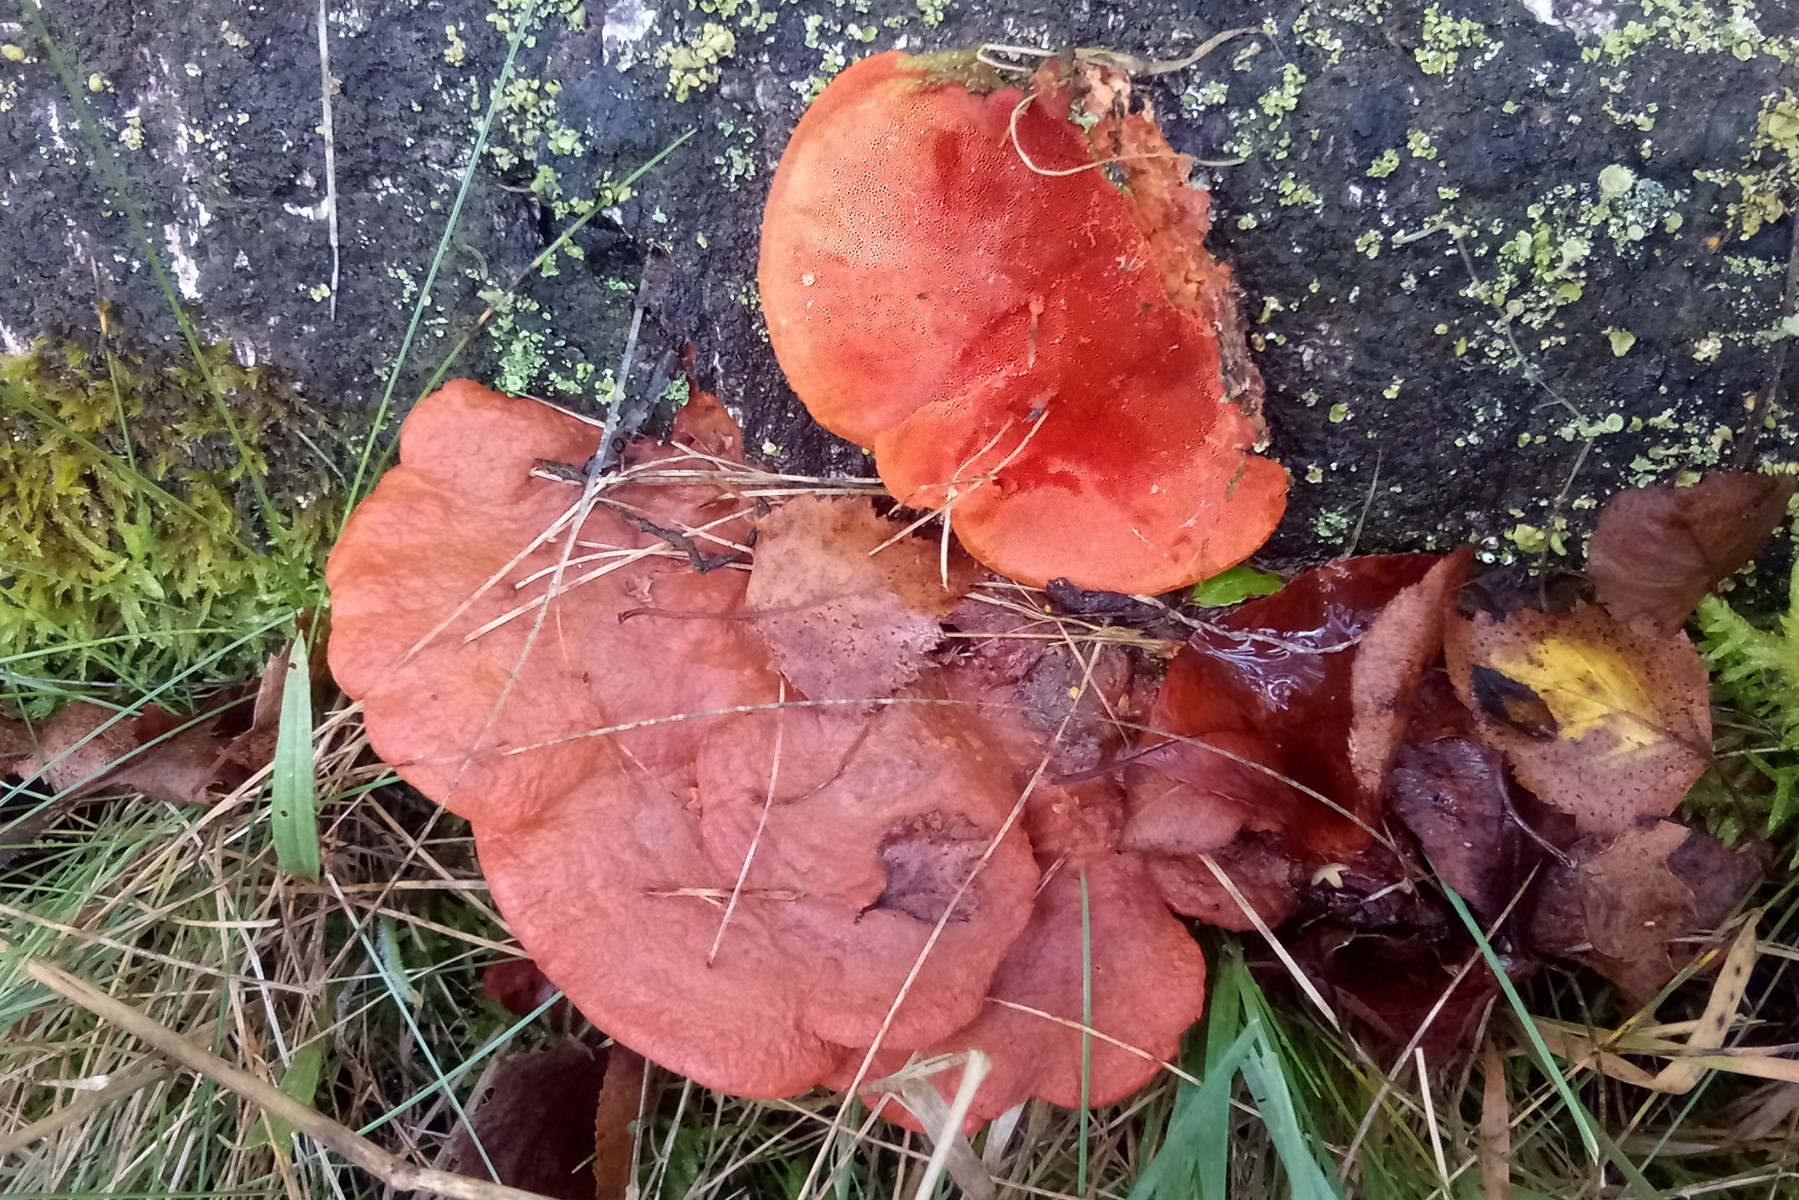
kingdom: Fungi
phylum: Basidiomycota
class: Agaricomycetes
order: Polyporales
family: Polyporaceae
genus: Trametes
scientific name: Trametes cinnabarina
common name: cinnoberporesvamp
